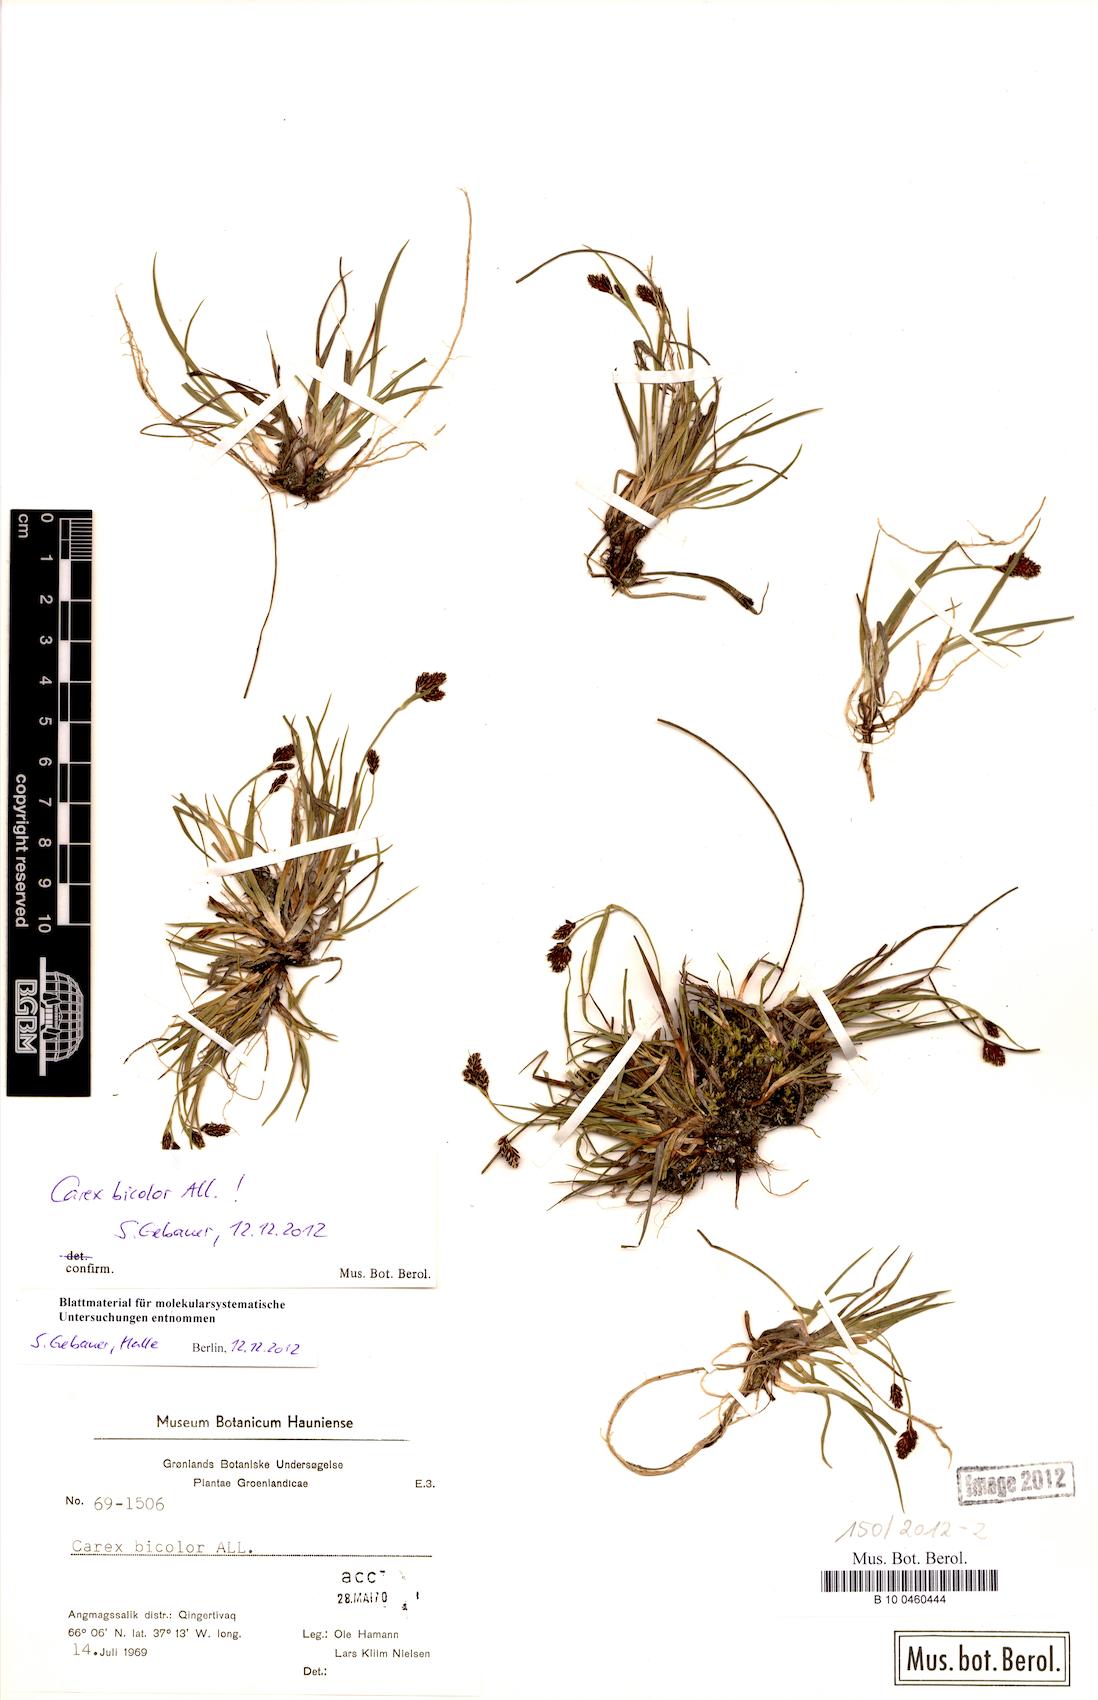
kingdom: Plantae
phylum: Tracheophyta
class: Liliopsida
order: Poales
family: Cyperaceae
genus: Carex
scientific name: Carex bicolor
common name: Bicoloured sedge
